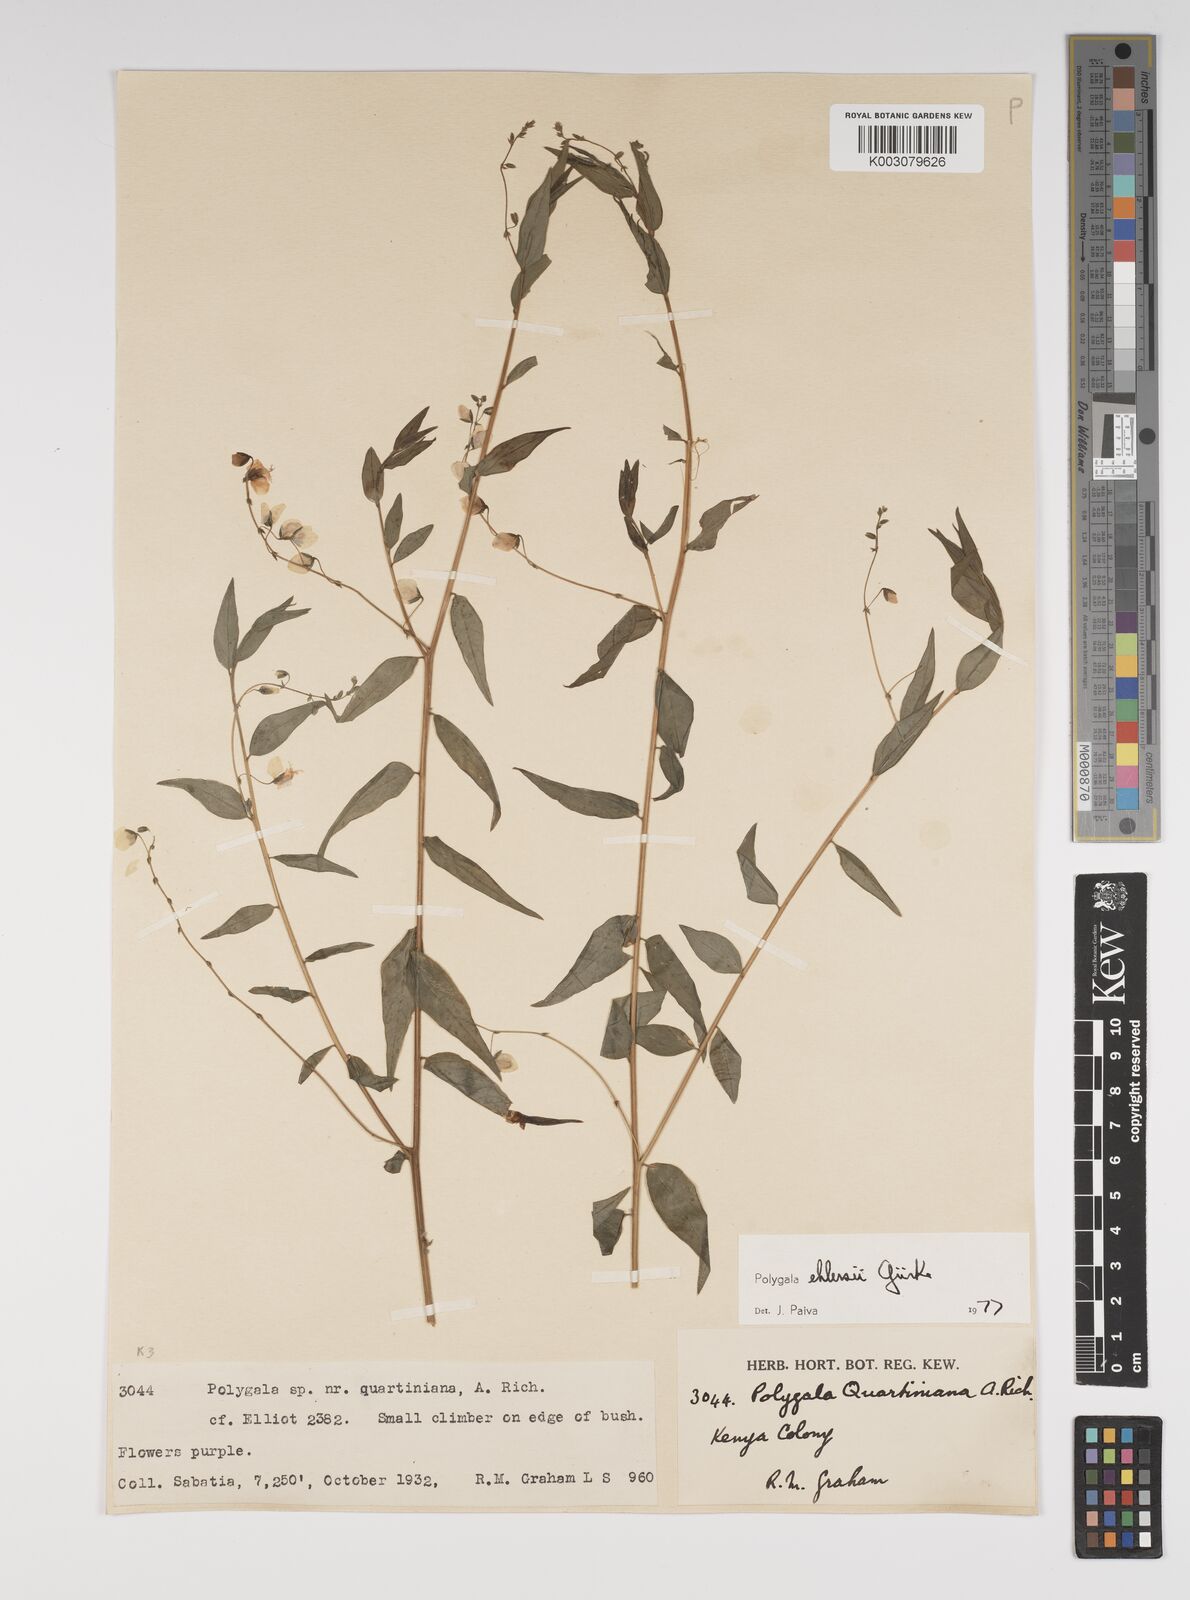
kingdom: Plantae
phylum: Tracheophyta
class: Magnoliopsida
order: Fabales
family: Polygalaceae
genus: Polygala
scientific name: Polygala ehlersii
